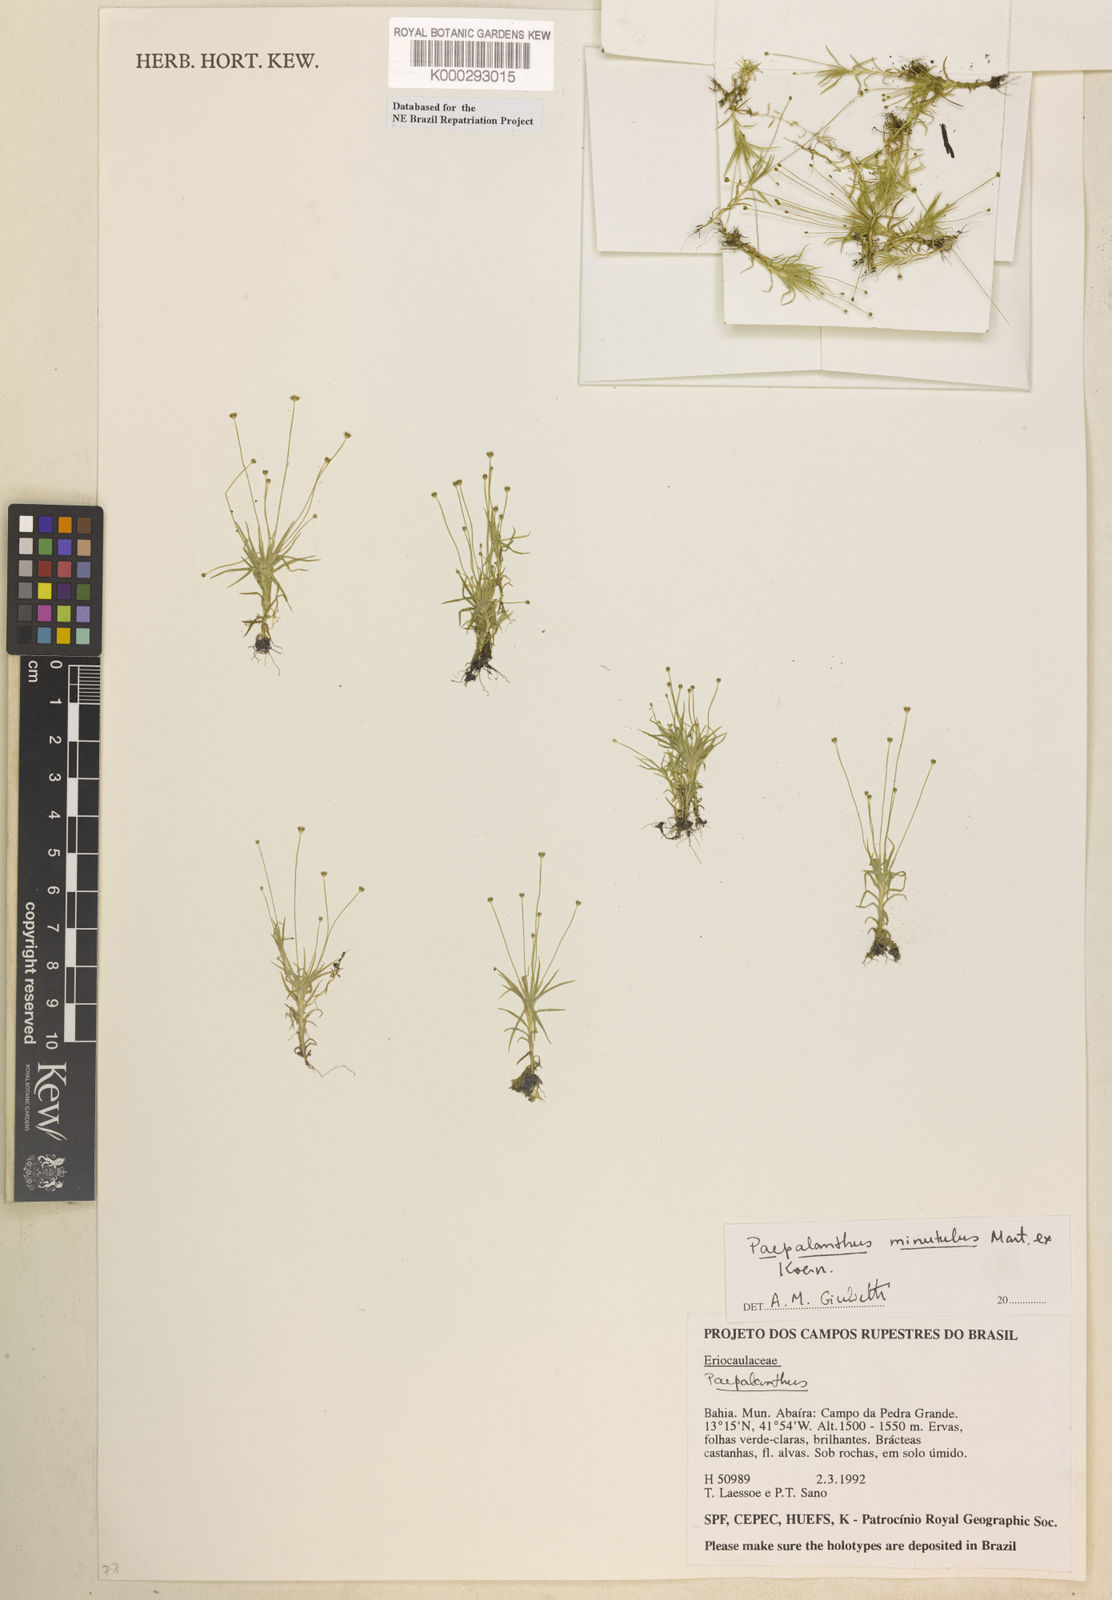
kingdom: Plantae
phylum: Tracheophyta
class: Liliopsida
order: Poales
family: Eriocaulaceae
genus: Paepalanthus
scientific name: Paepalanthus
